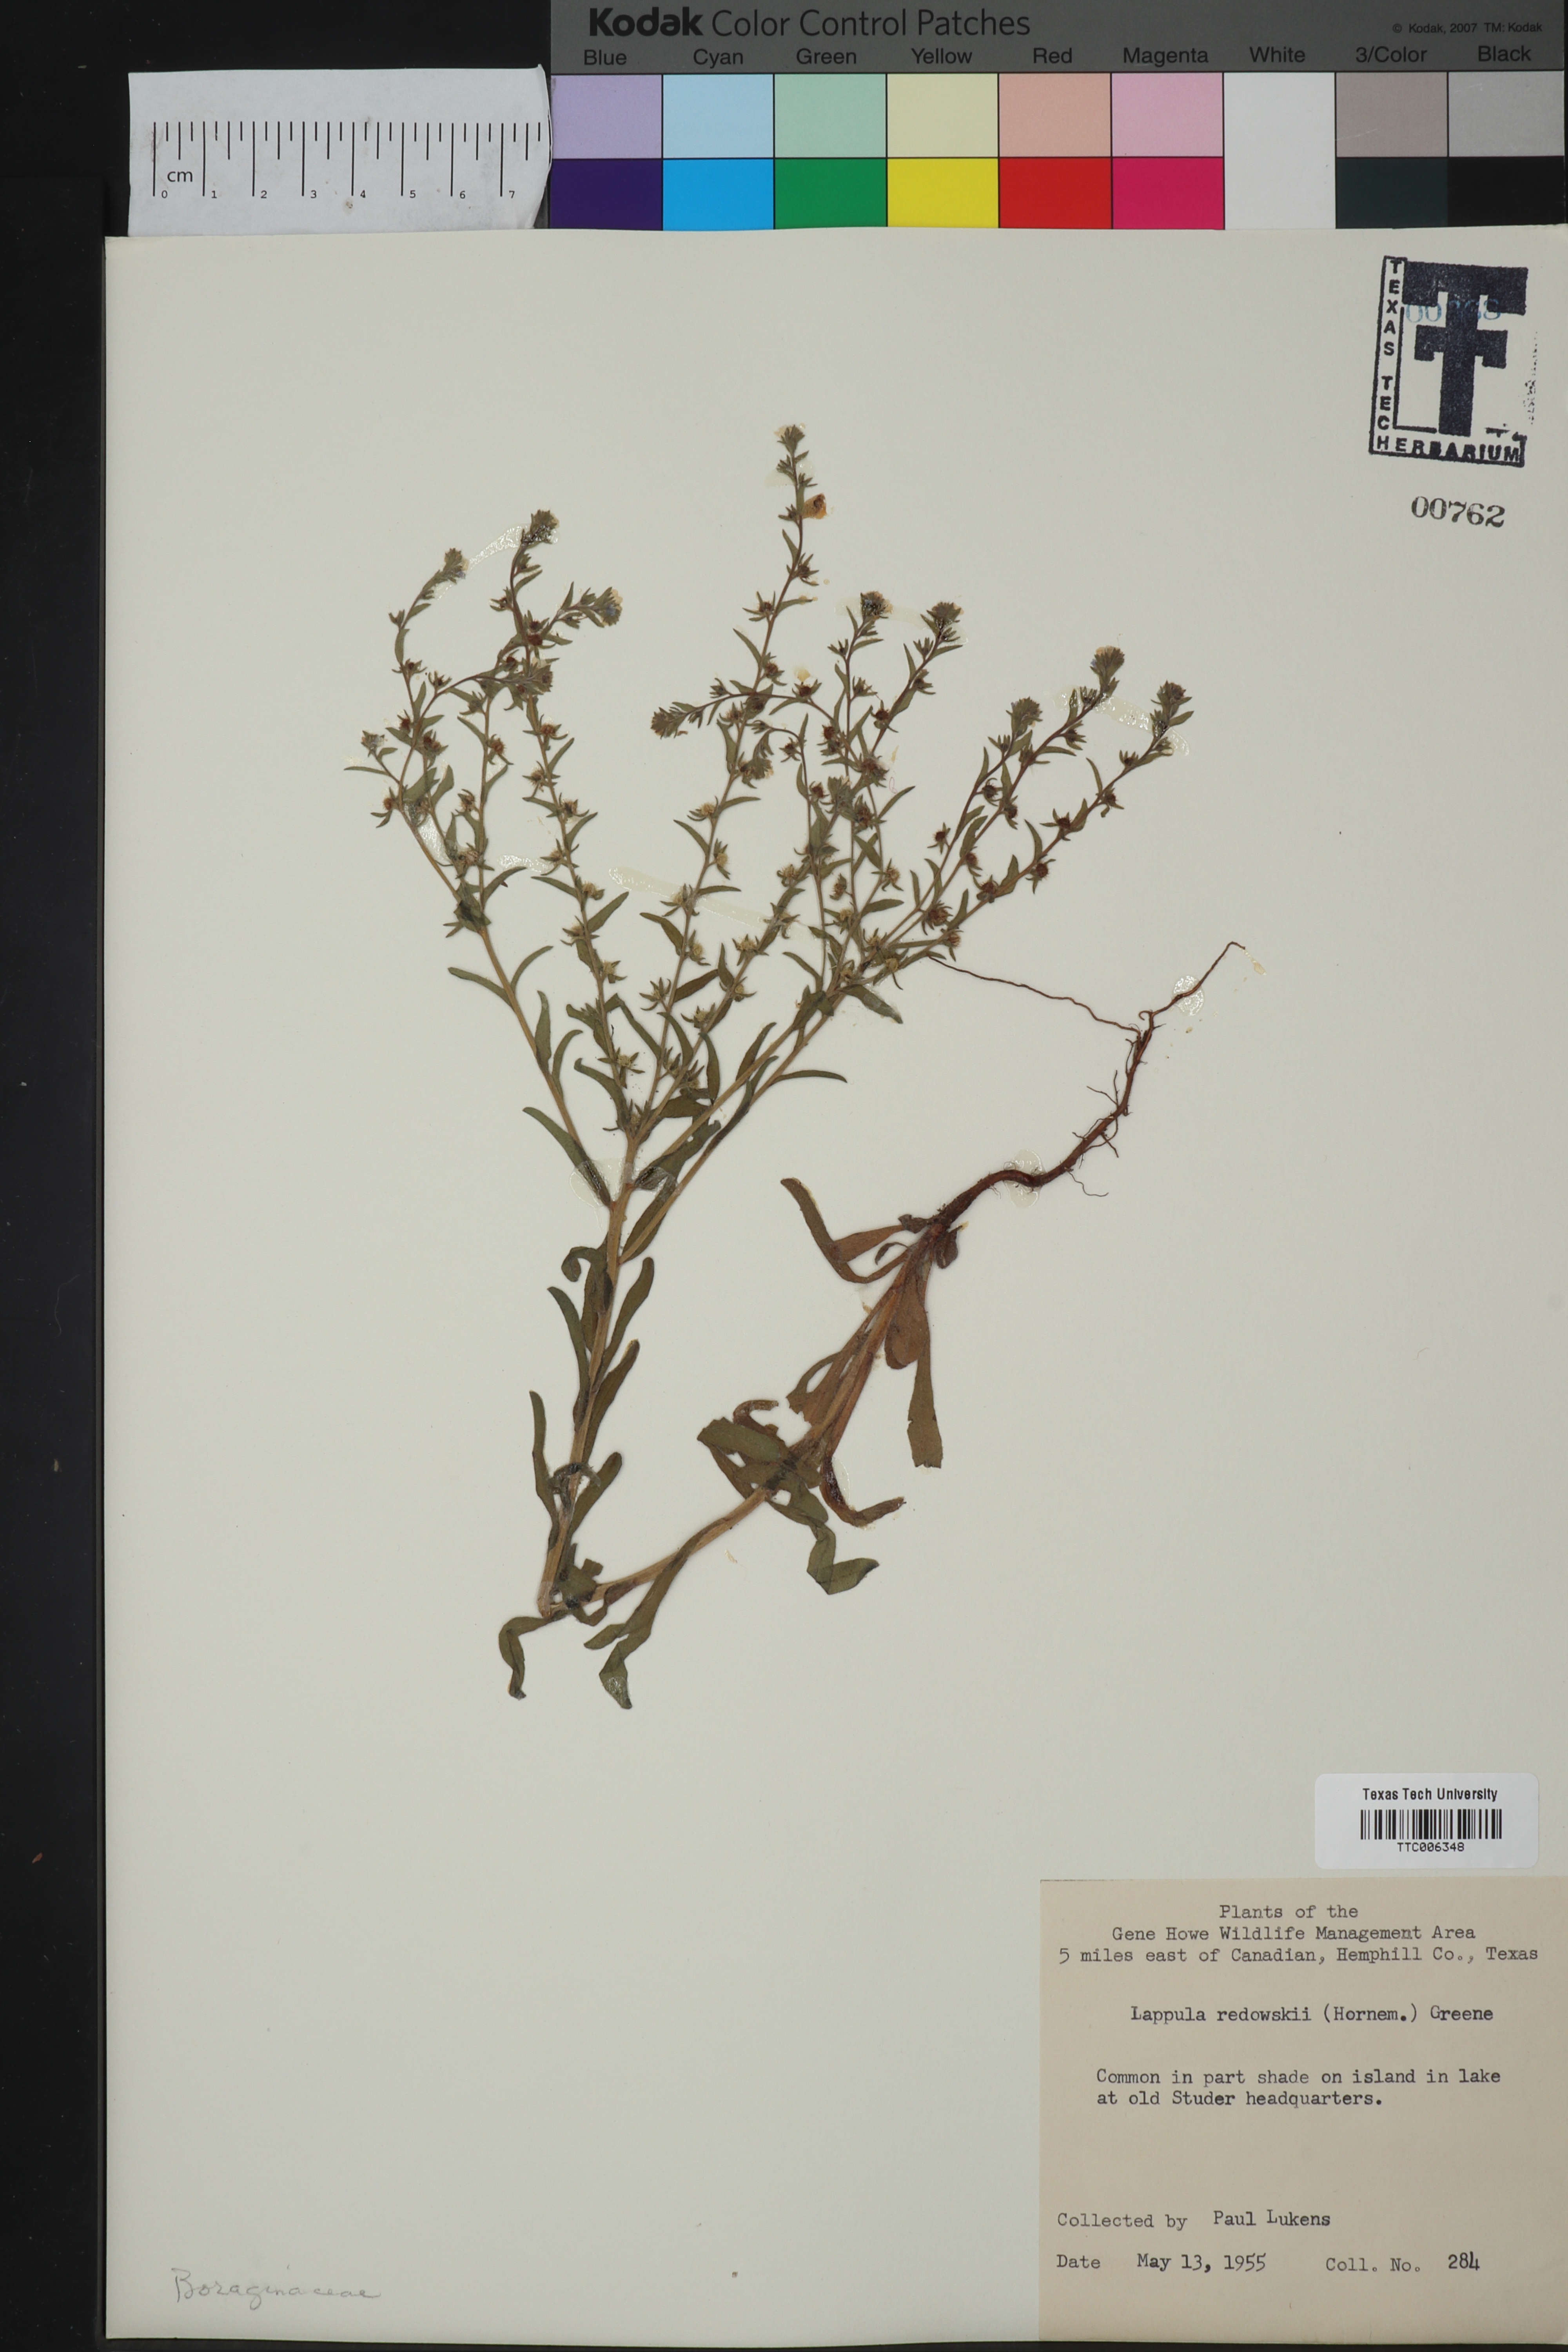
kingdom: Plantae
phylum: Tracheophyta
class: Magnoliopsida
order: Boraginales
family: Boraginaceae
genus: Lappula
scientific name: Lappula redowskii
